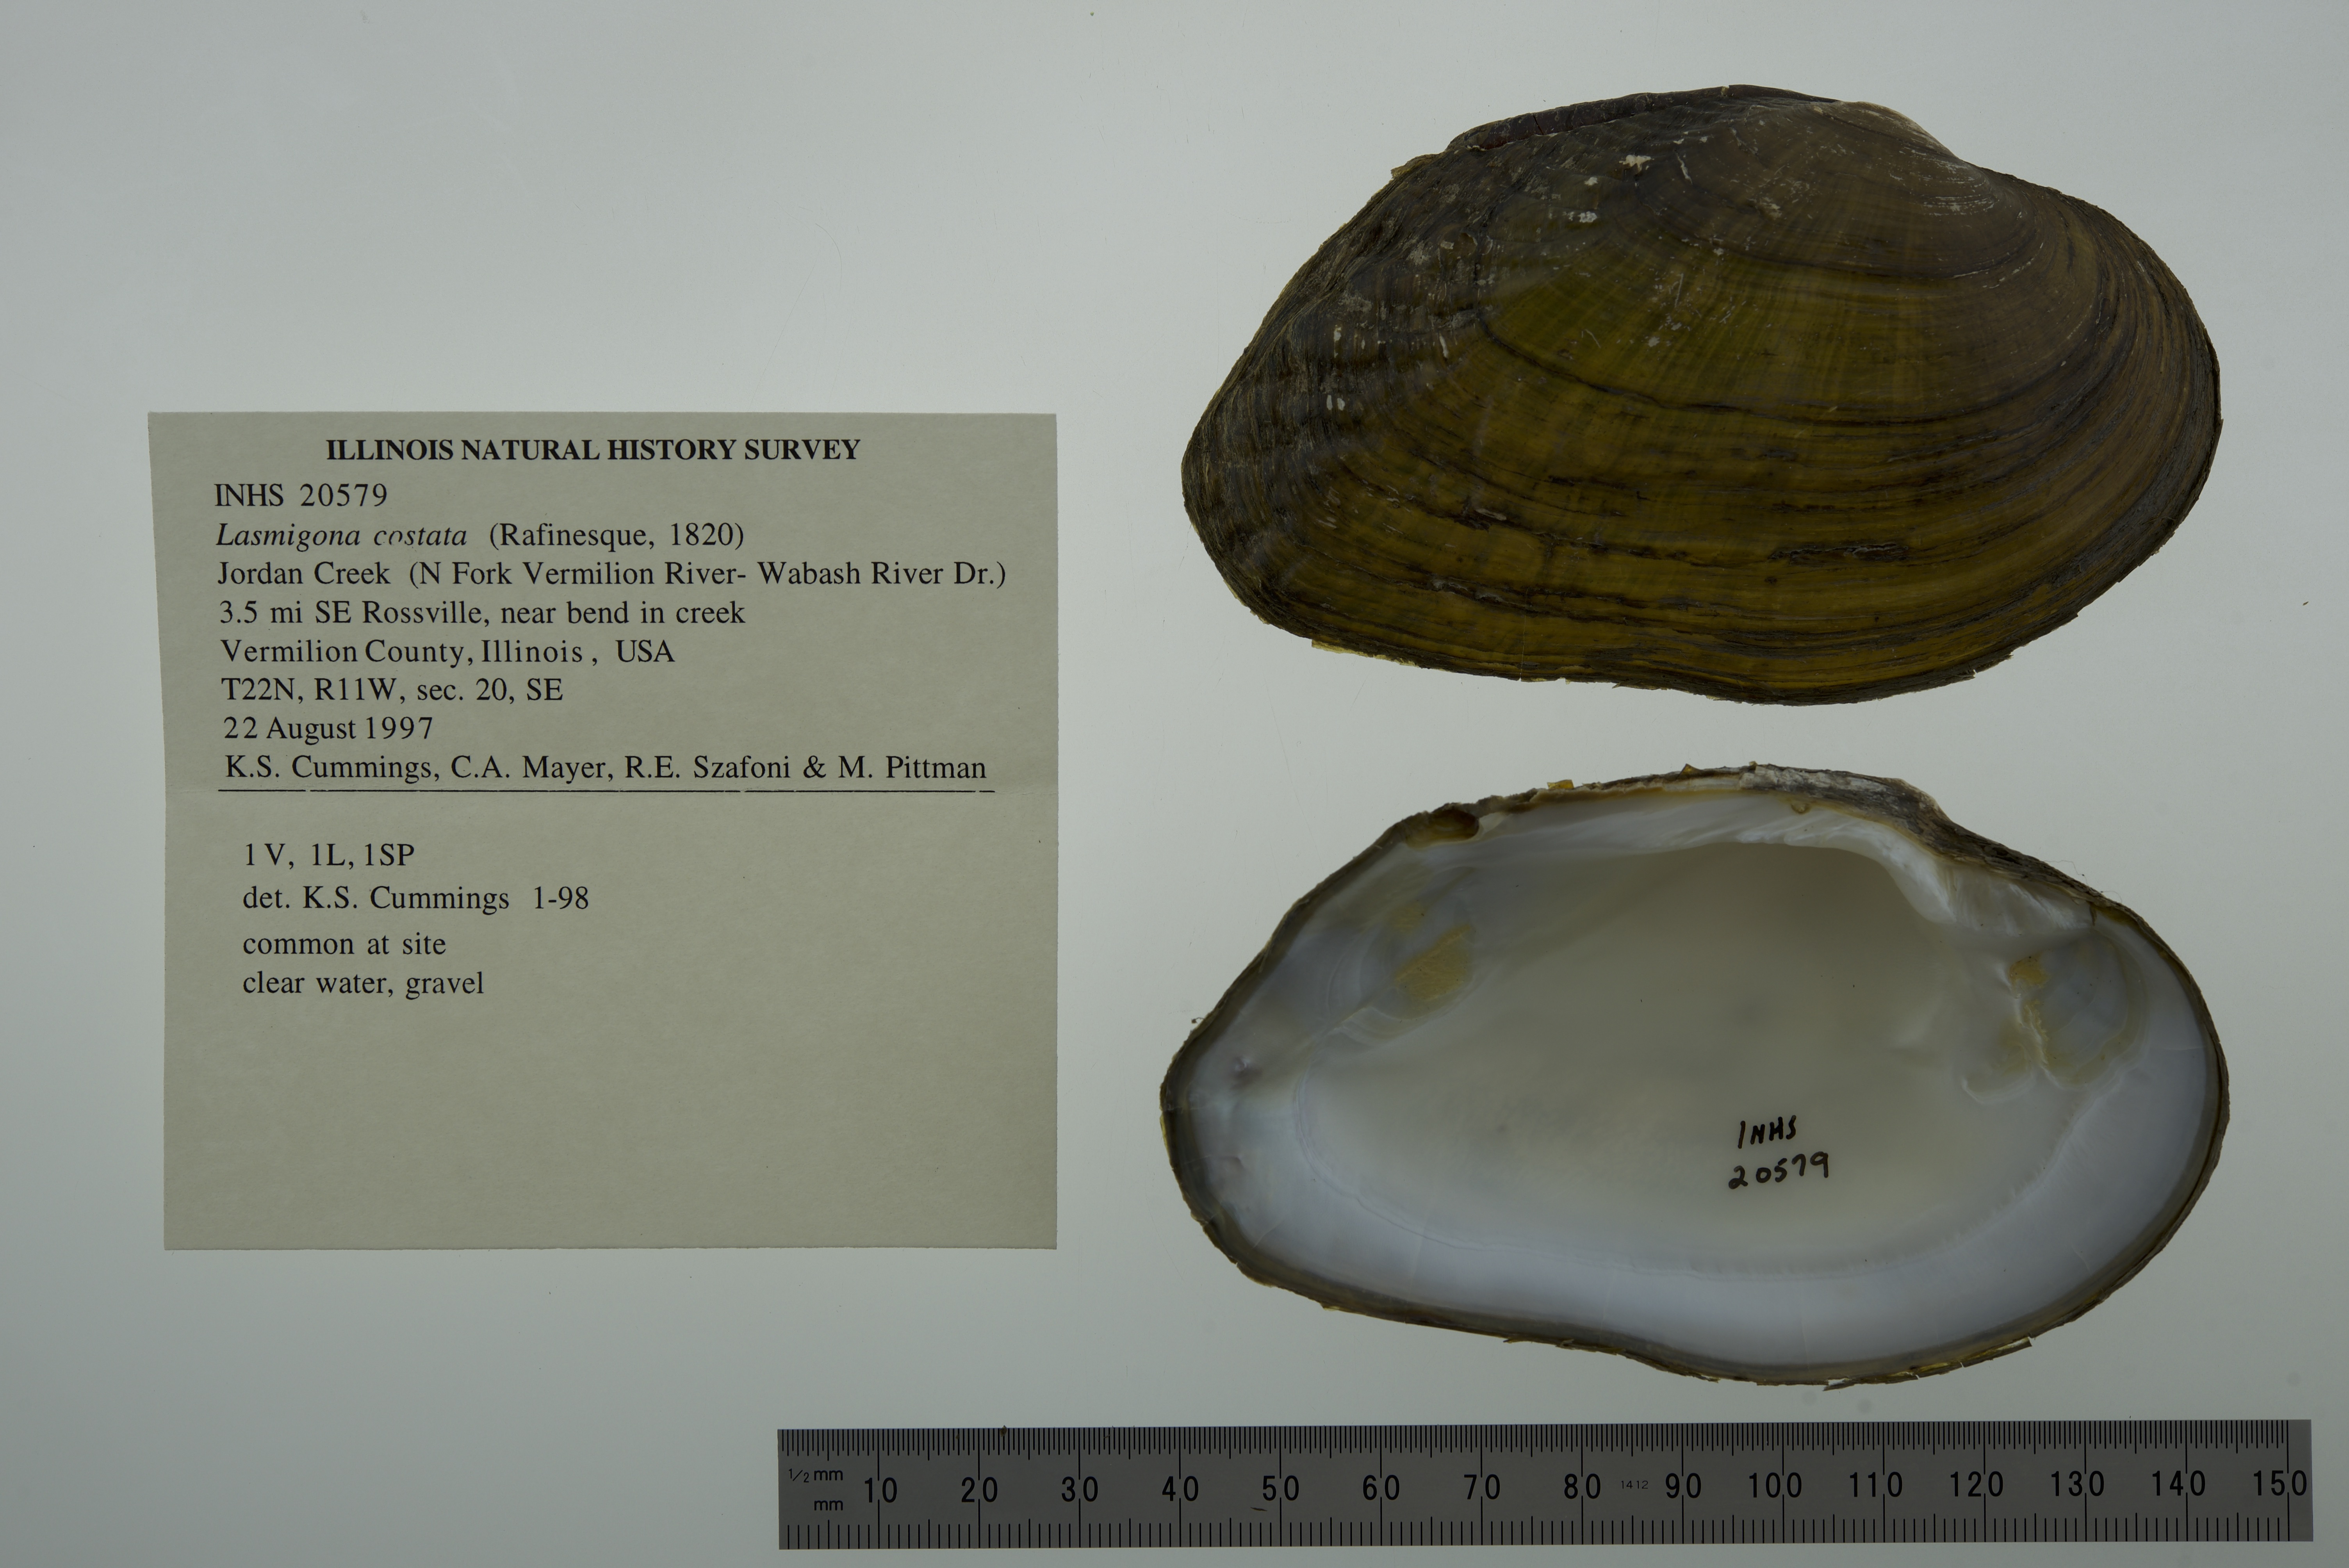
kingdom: Animalia
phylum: Mollusca
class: Bivalvia
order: Unionida
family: Unionidae
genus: Lasmigona
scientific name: Lasmigona costata
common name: Flutedshell
